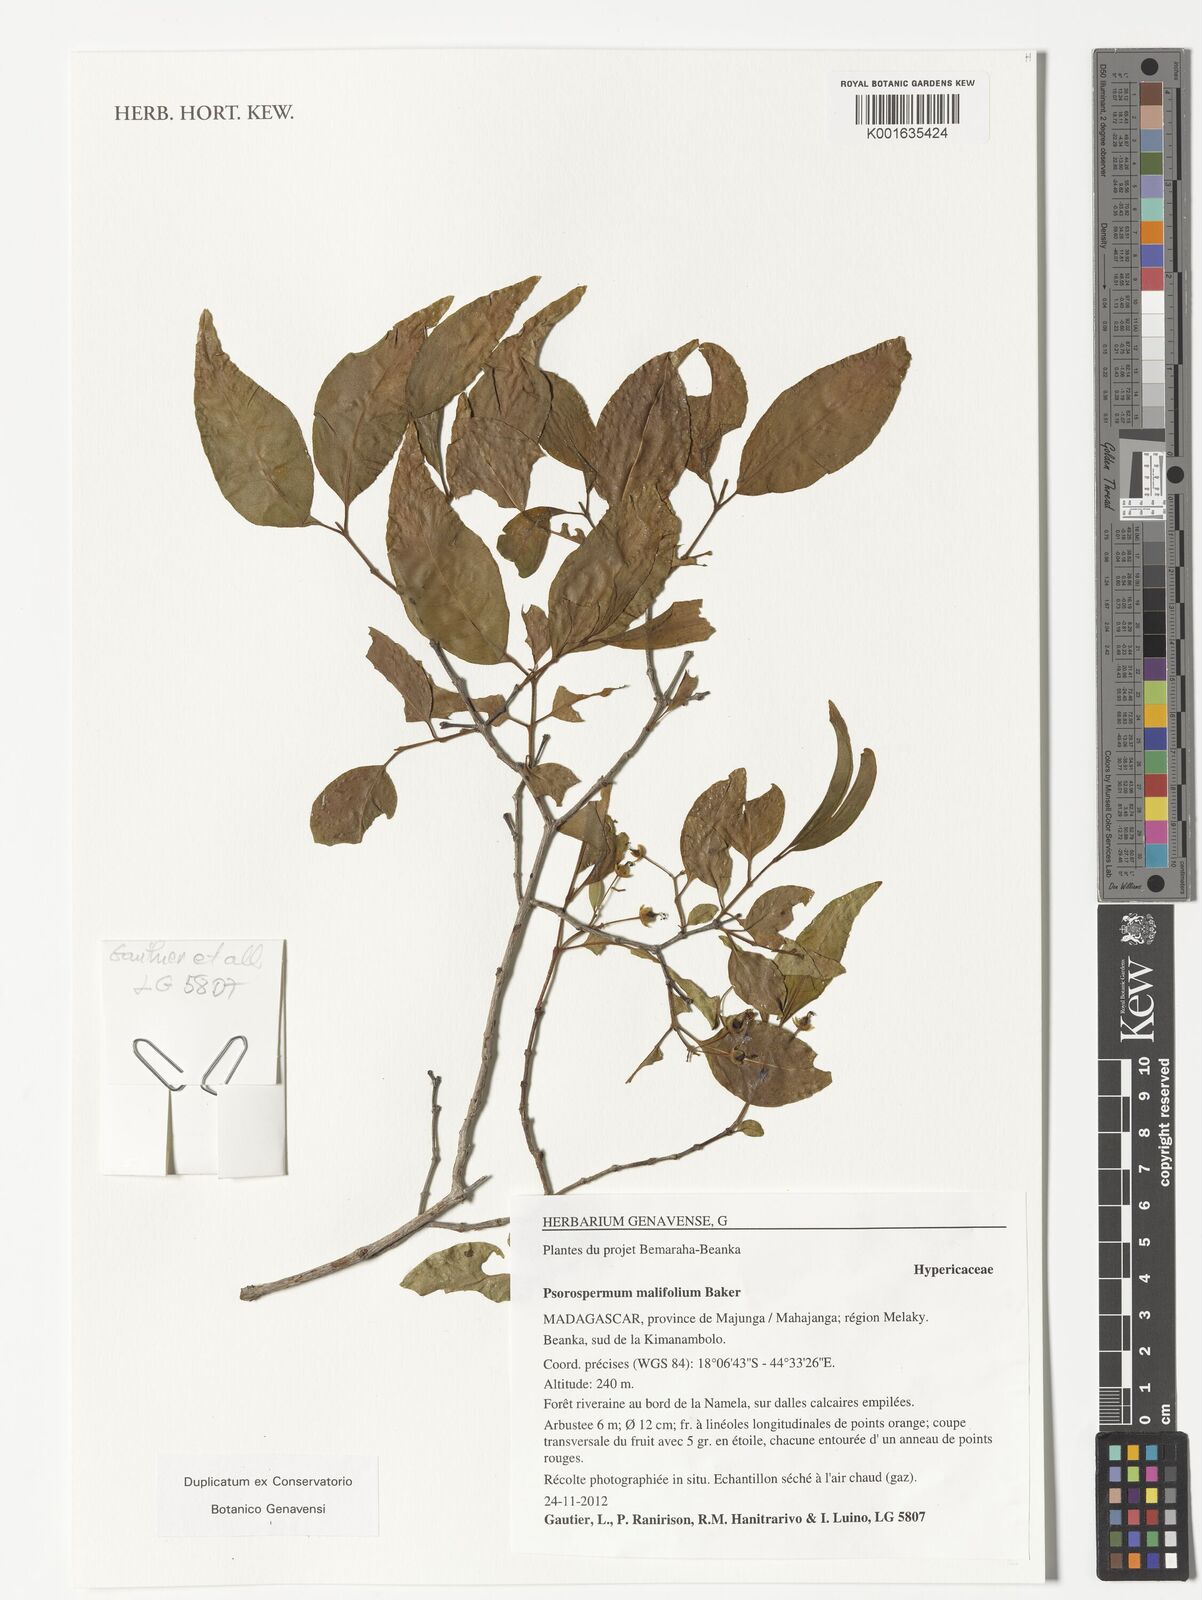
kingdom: Plantae
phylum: Tracheophyta
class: Magnoliopsida
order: Malpighiales
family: Hypericaceae
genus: Psorospermum
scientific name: Psorospermum malifolium
